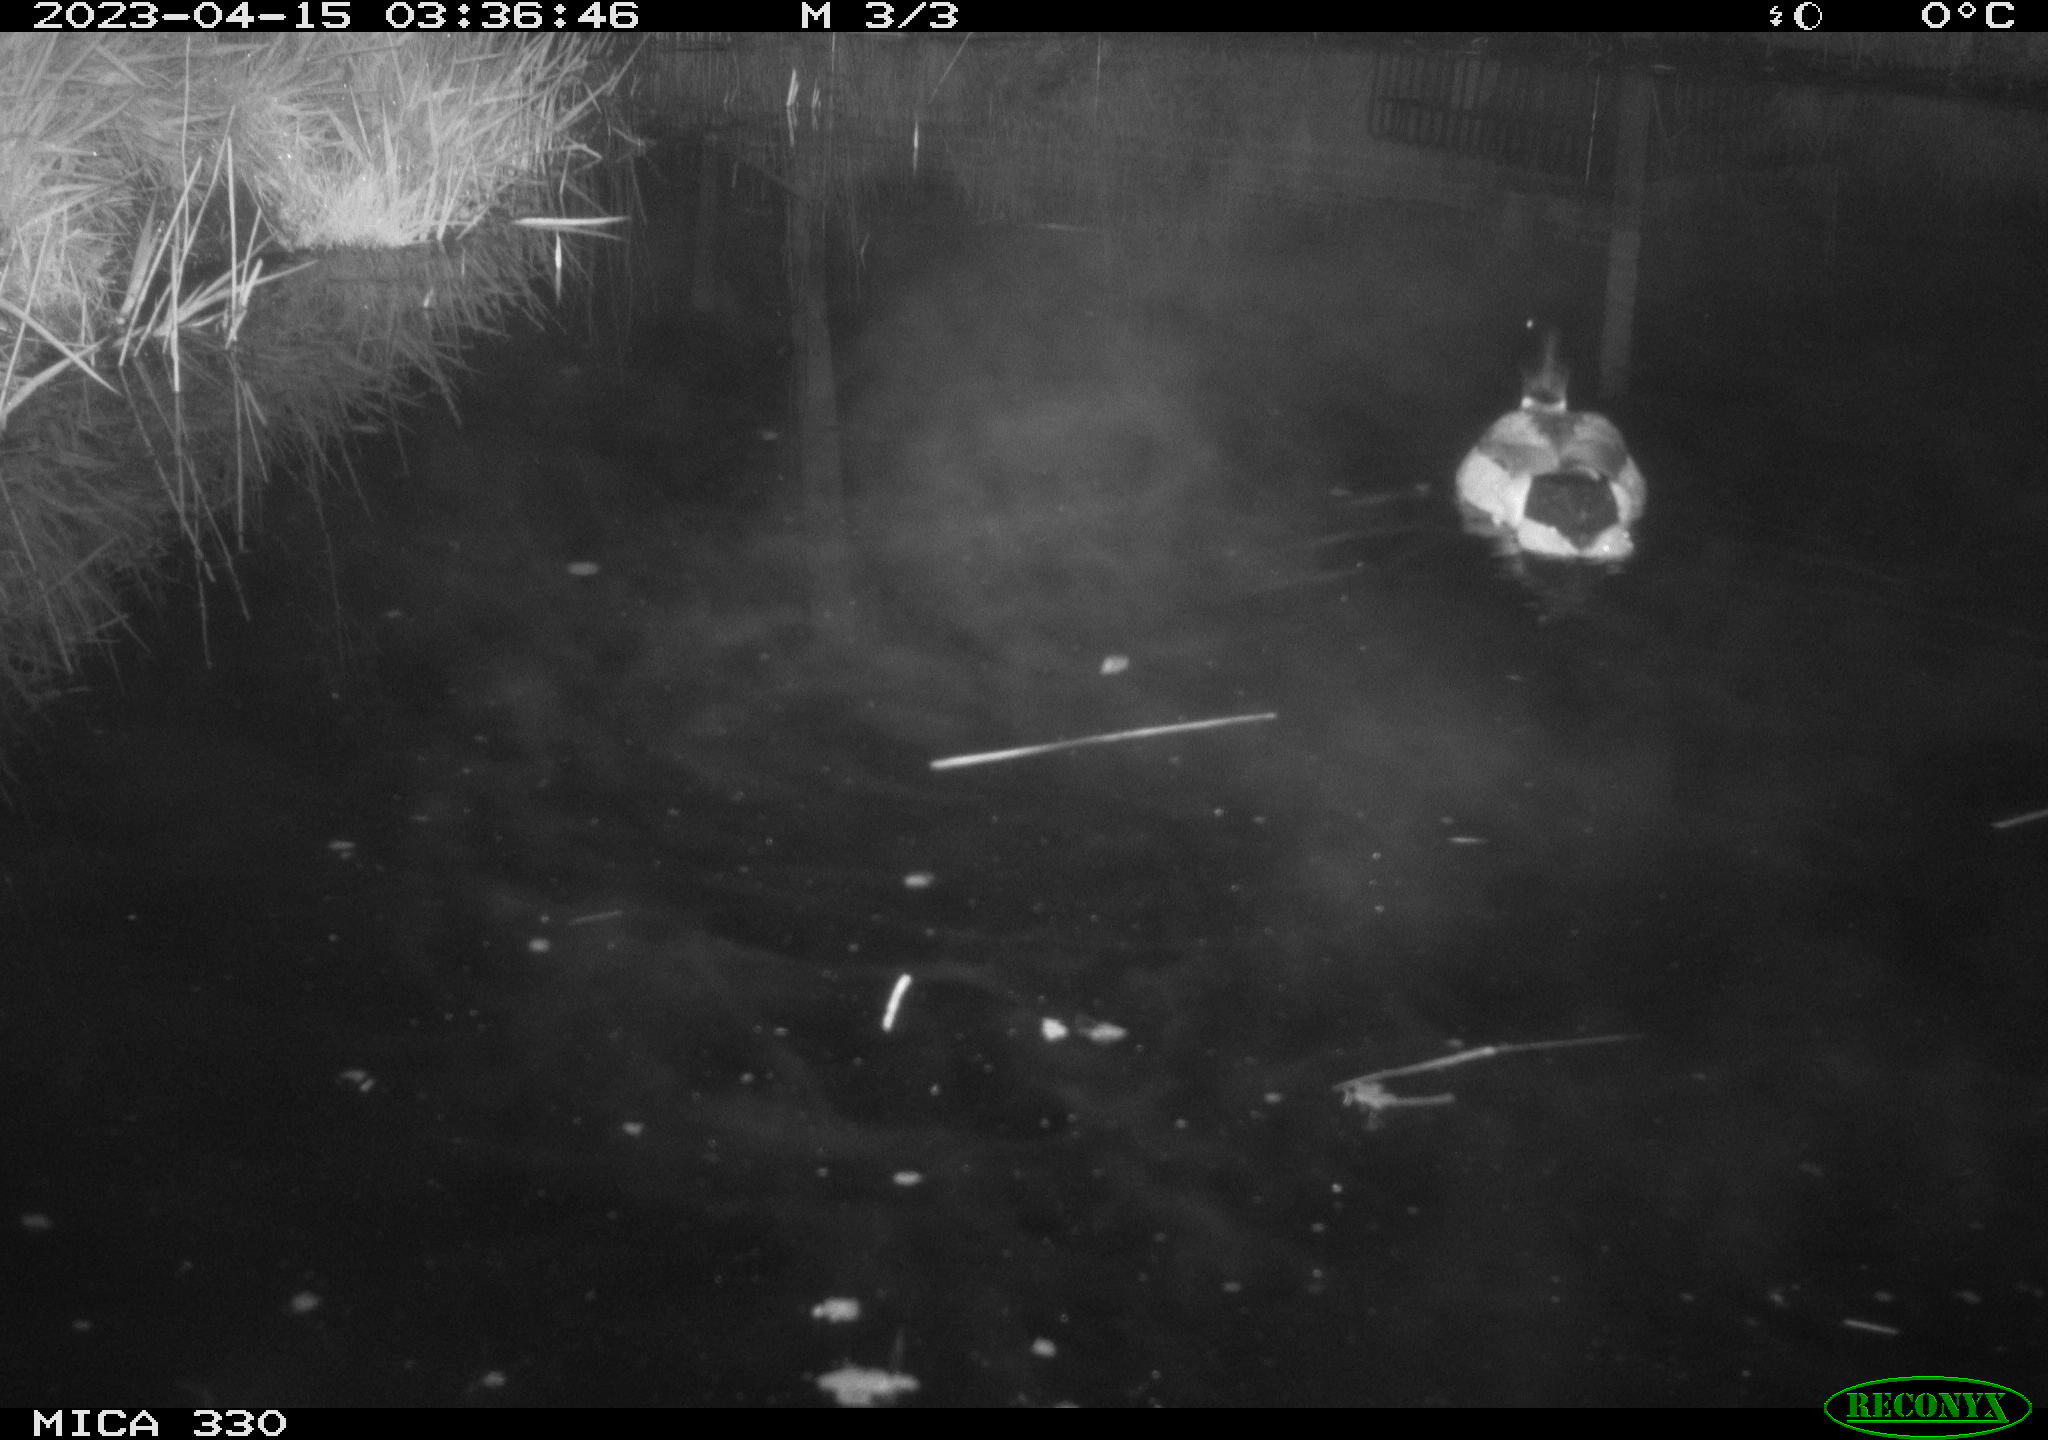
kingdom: Animalia
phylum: Chordata
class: Aves
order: Anseriformes
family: Anatidae
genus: Anas
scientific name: Anas
